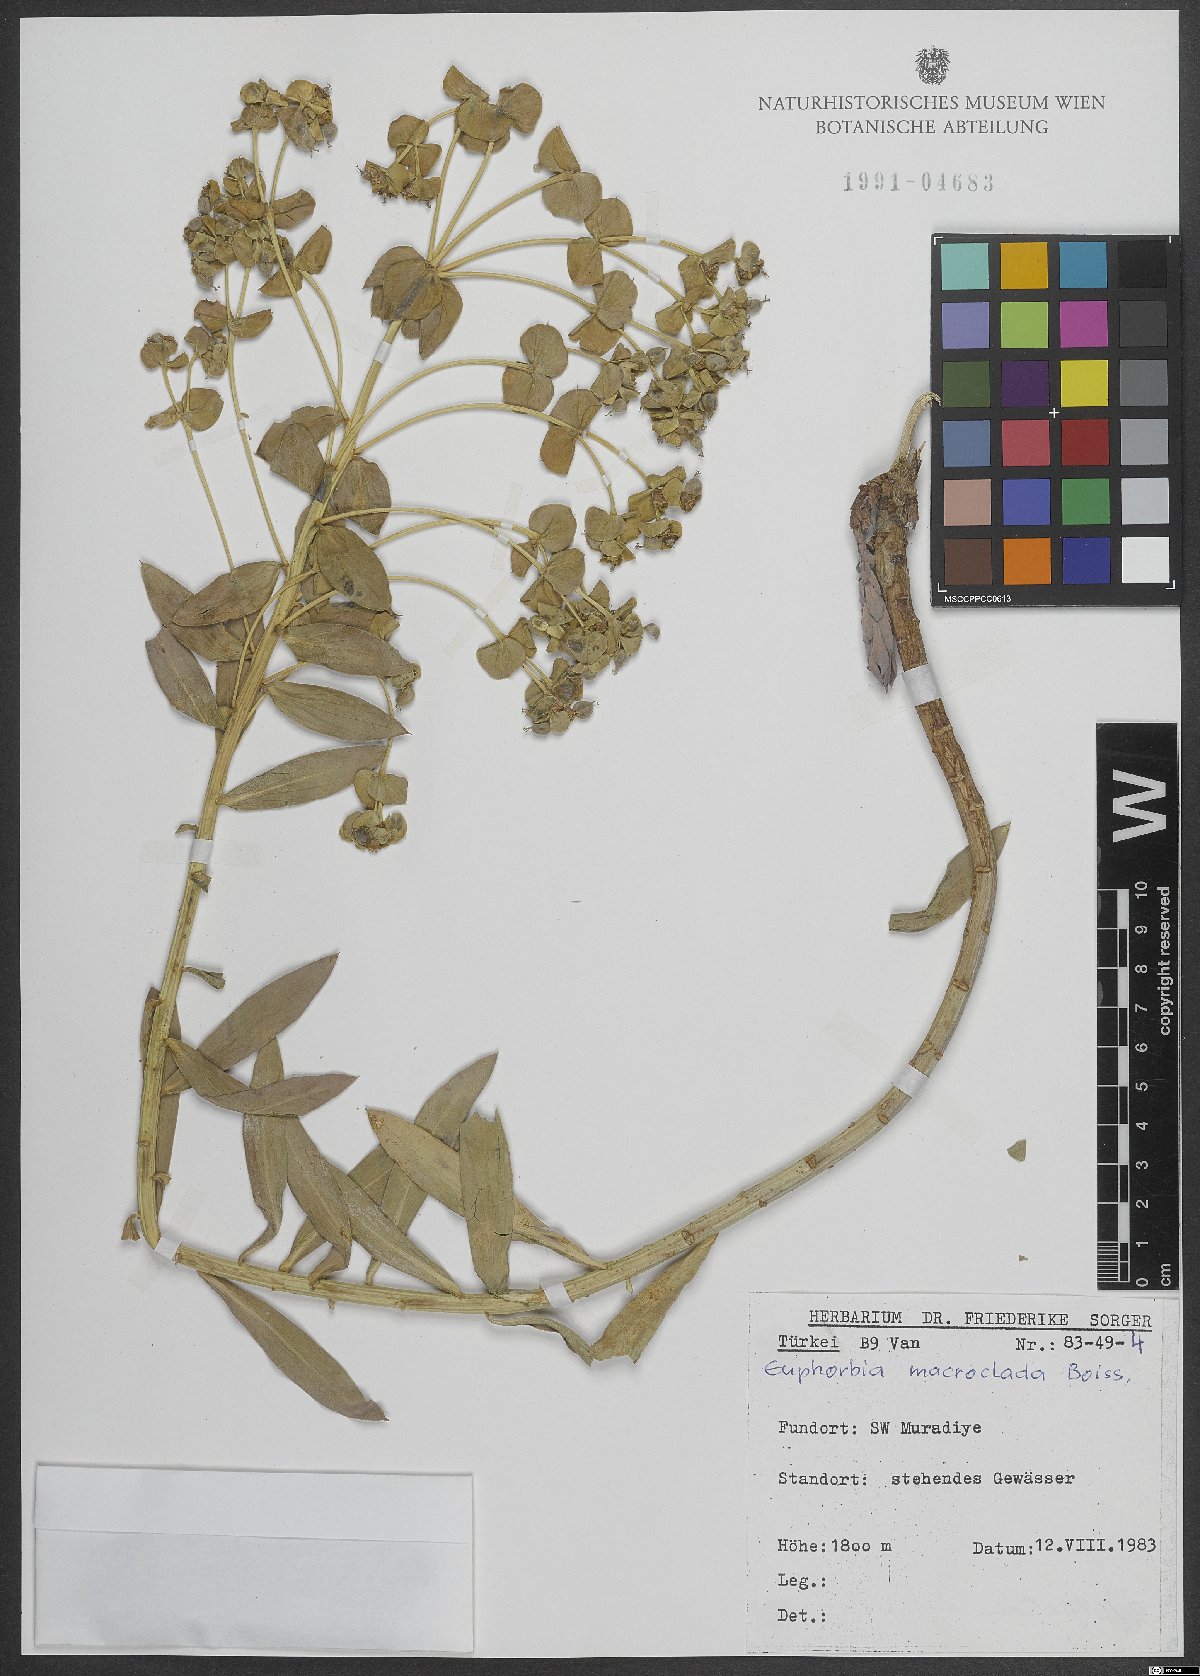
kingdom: Plantae
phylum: Tracheophyta
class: Magnoliopsida
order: Malpighiales
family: Euphorbiaceae
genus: Euphorbia
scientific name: Euphorbia macroclada
